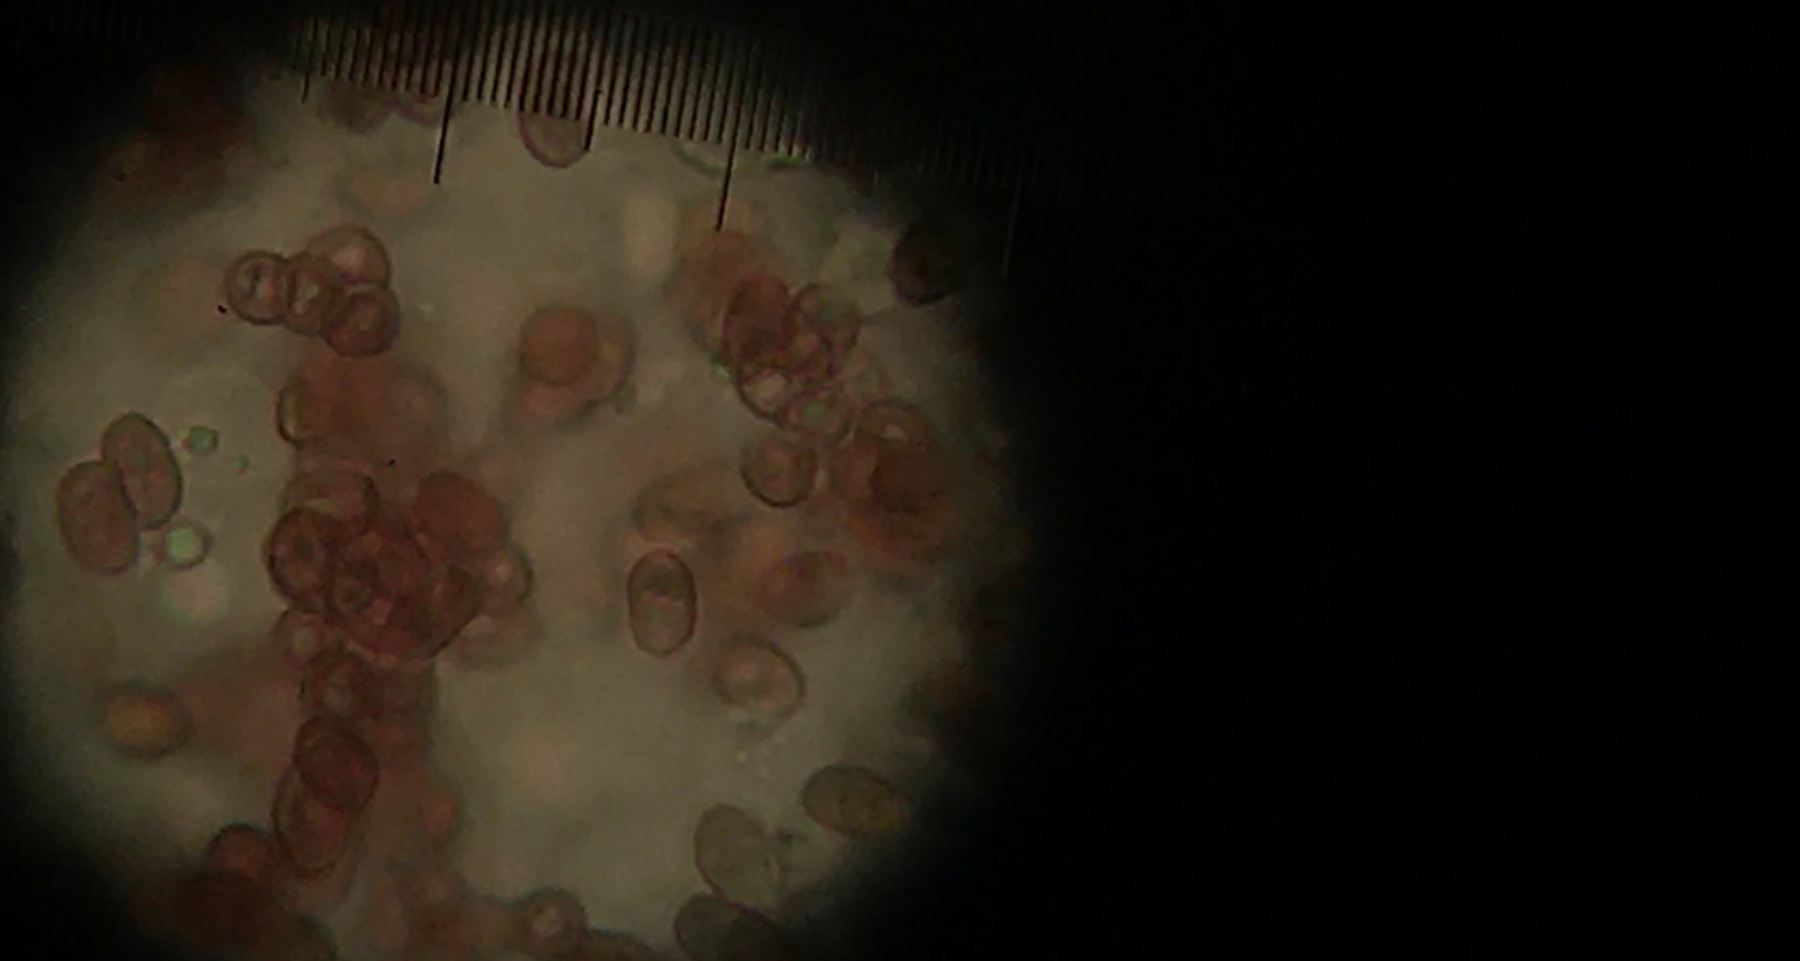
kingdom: Fungi
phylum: Basidiomycota
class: Agaricomycetes
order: Agaricales
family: Agaricaceae
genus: Lepiota
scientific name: Lepiota subincarnata
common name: kødfarvet parasolhat
